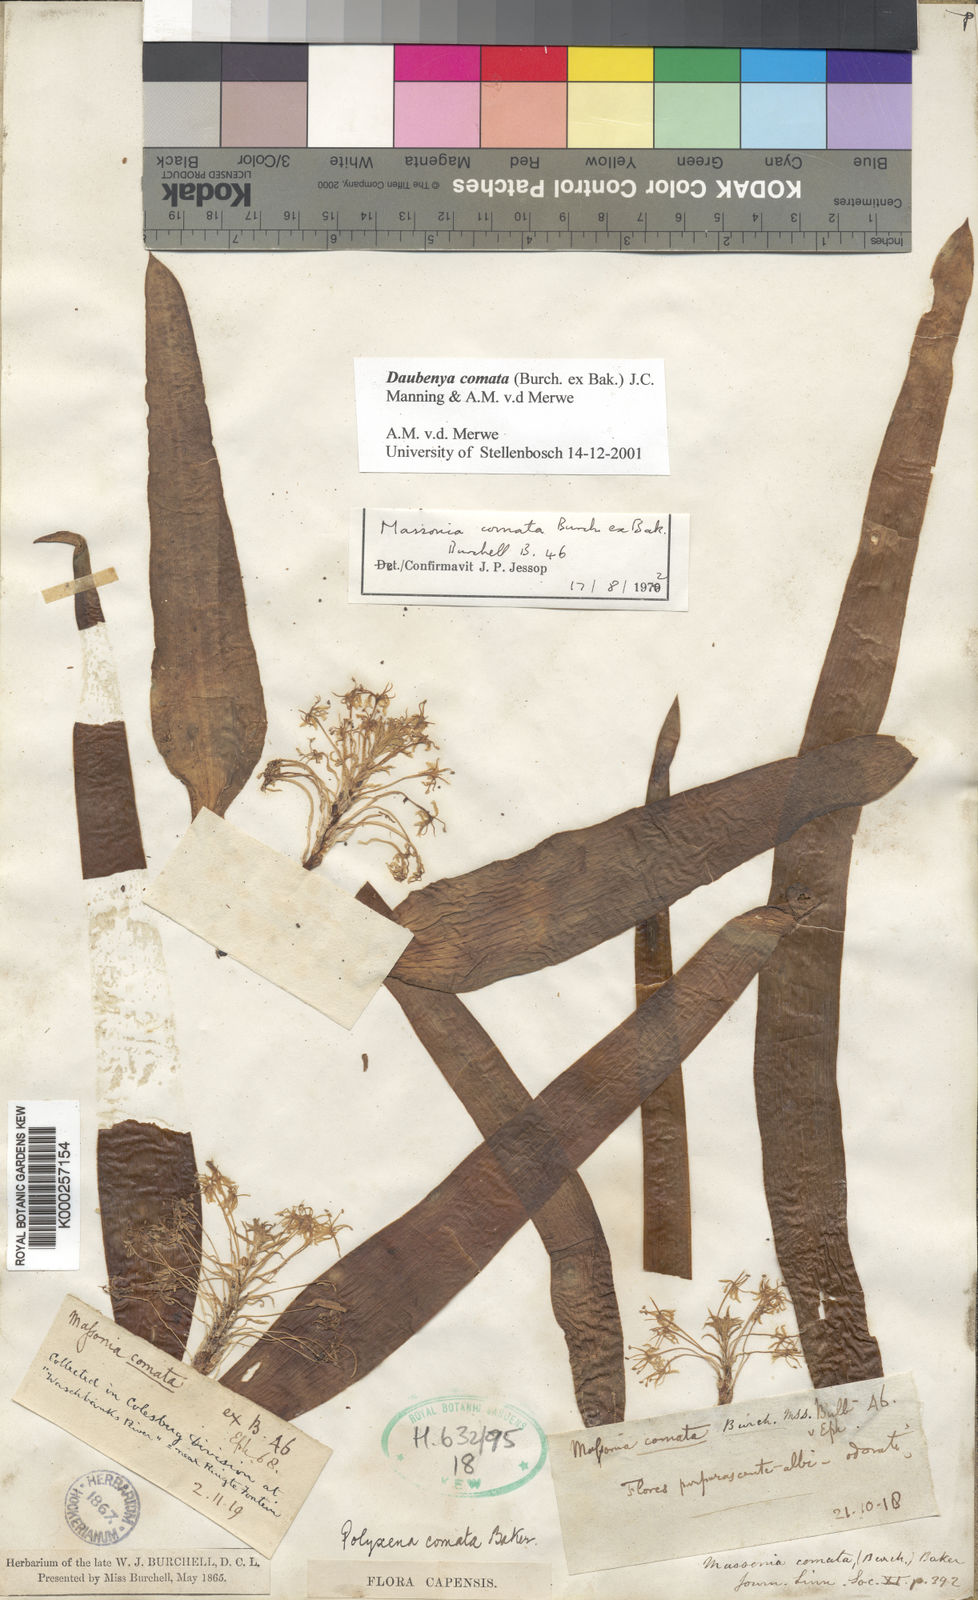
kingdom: Plantae
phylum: Tracheophyta
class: Liliopsida
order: Asparagales
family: Asparagaceae
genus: Daubenya
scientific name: Daubenya comata
